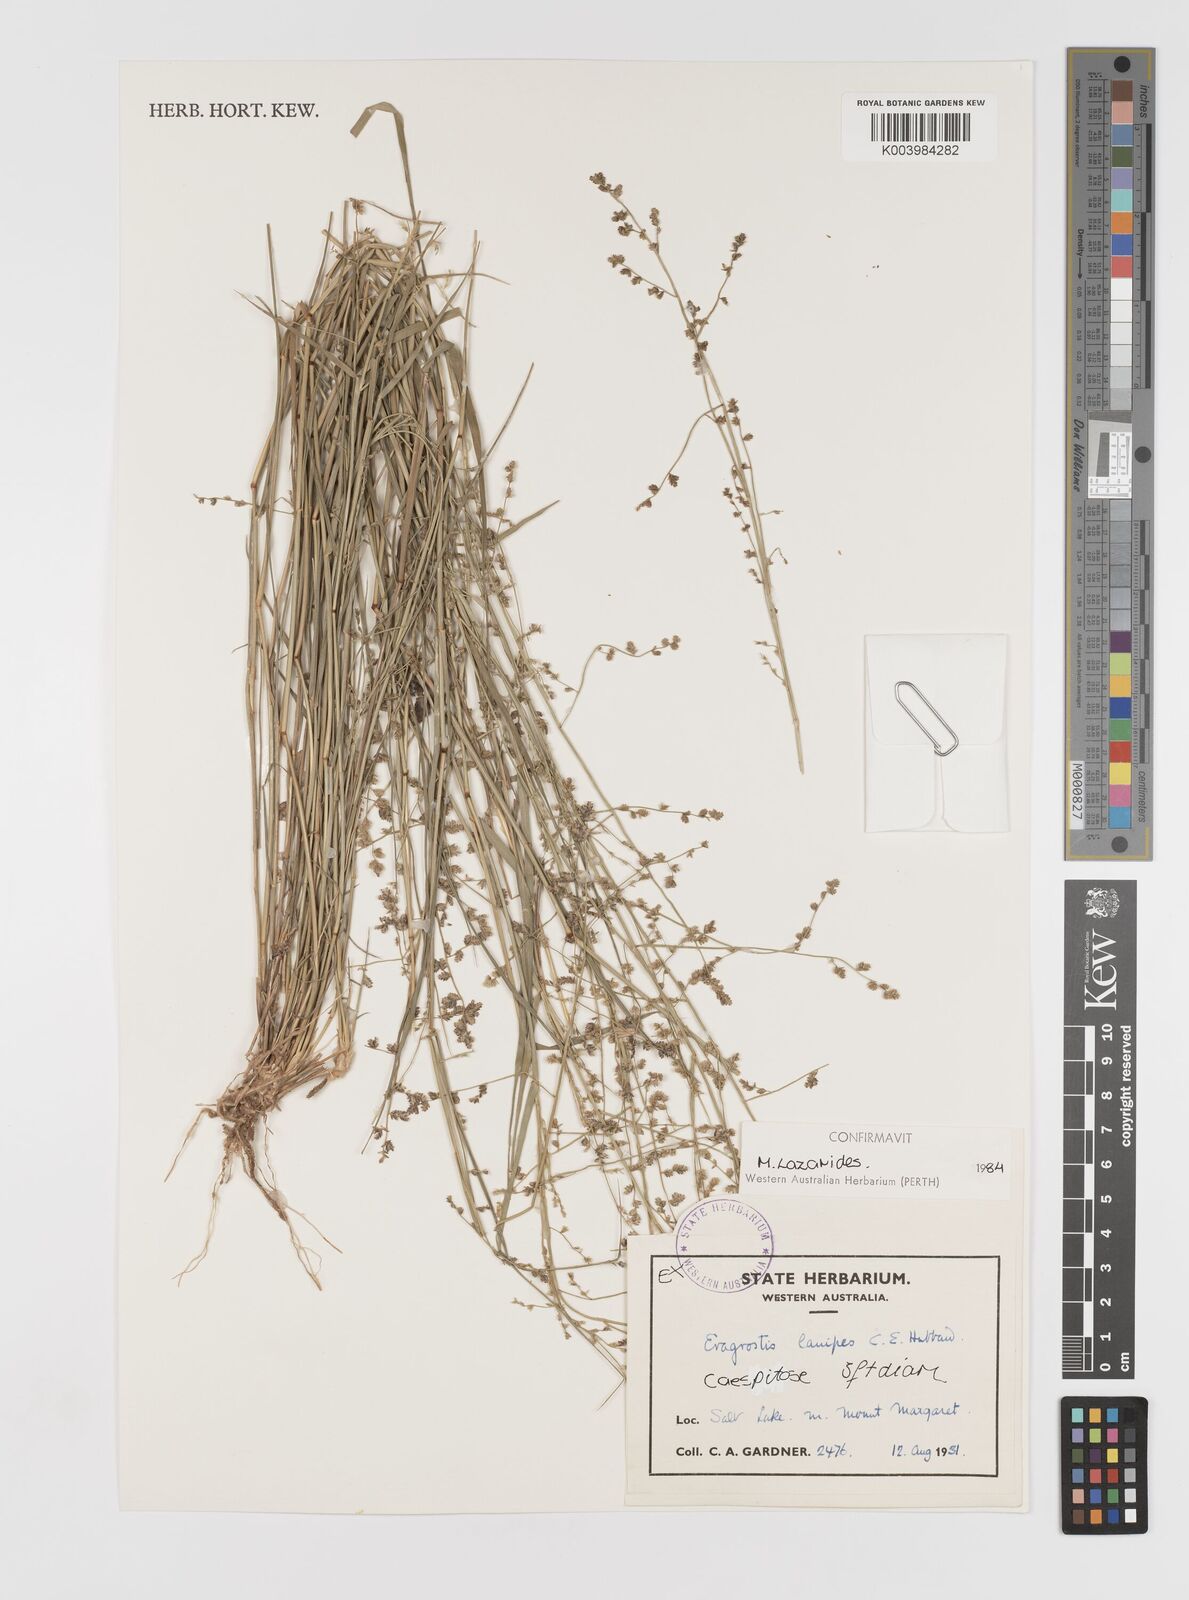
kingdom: Plantae
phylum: Tracheophyta
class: Liliopsida
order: Poales
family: Poaceae
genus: Eragrostis
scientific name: Eragrostis lanipes
